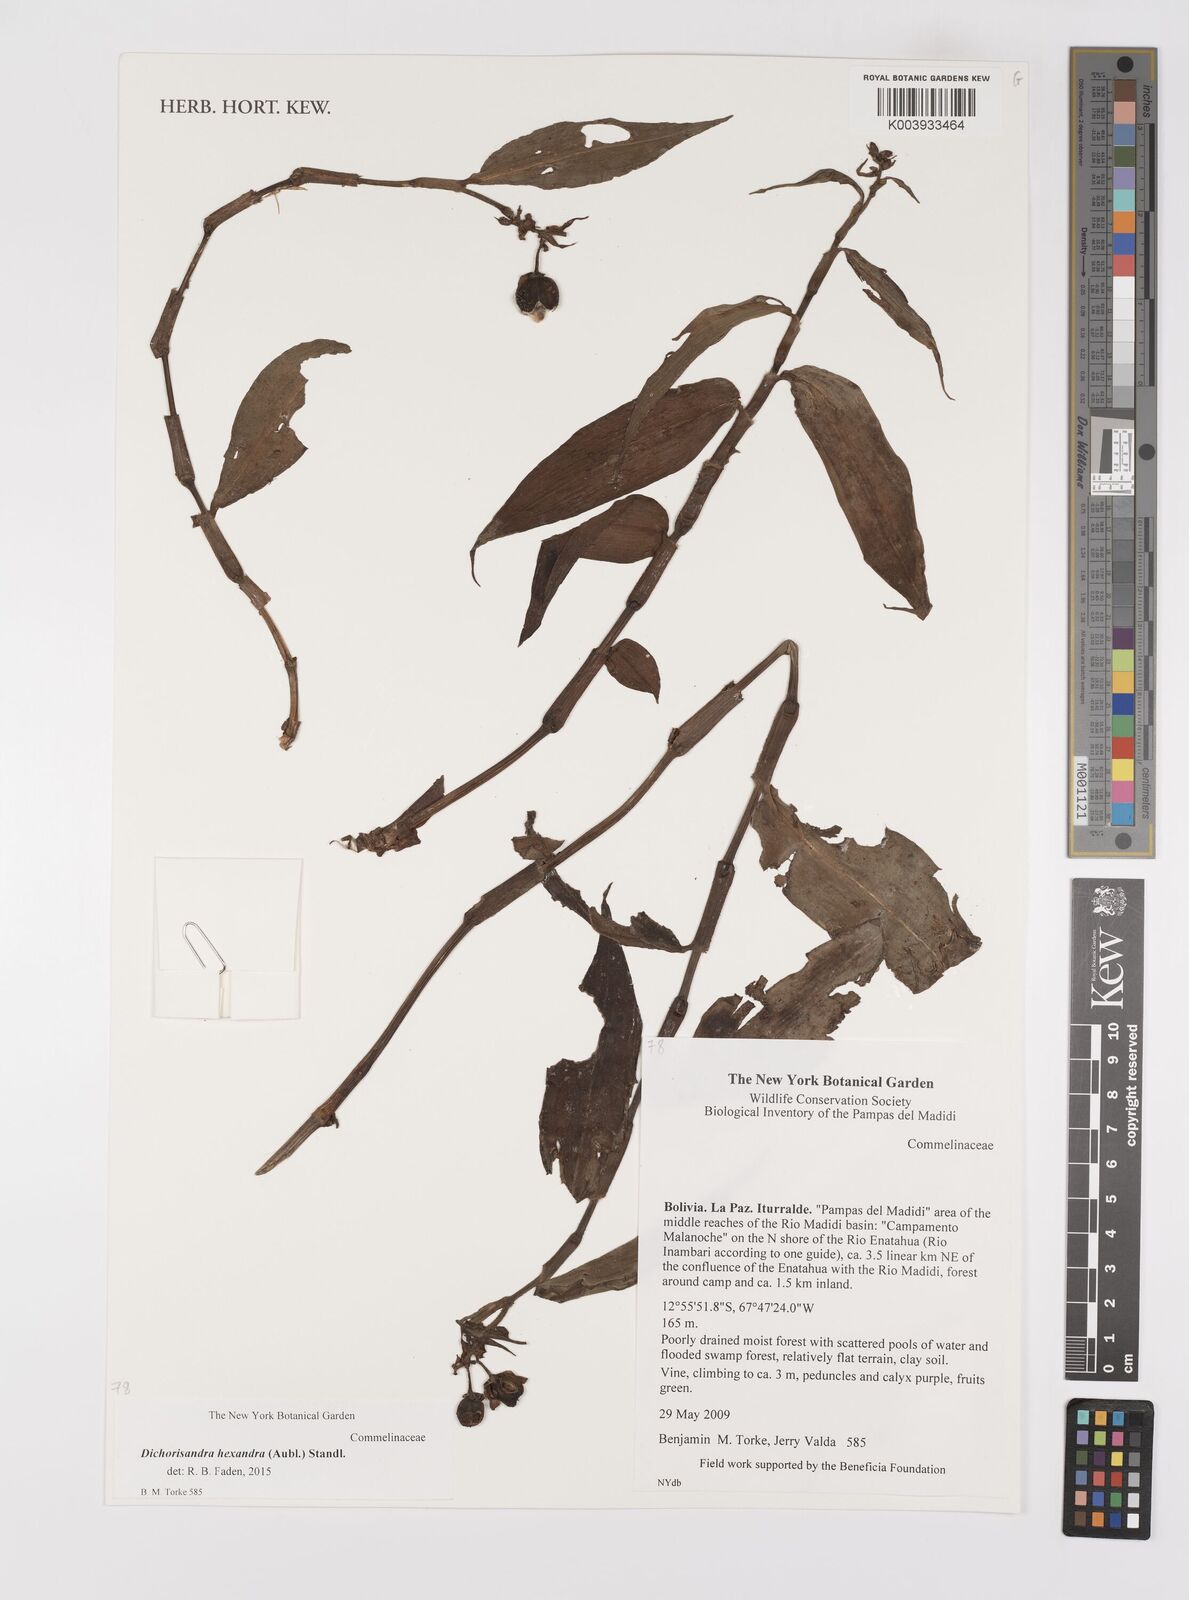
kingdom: Plantae
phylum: Tracheophyta
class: Liliopsida
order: Commelinales
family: Commelinaceae
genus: Dichorisandra
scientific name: Dichorisandra hexandra
